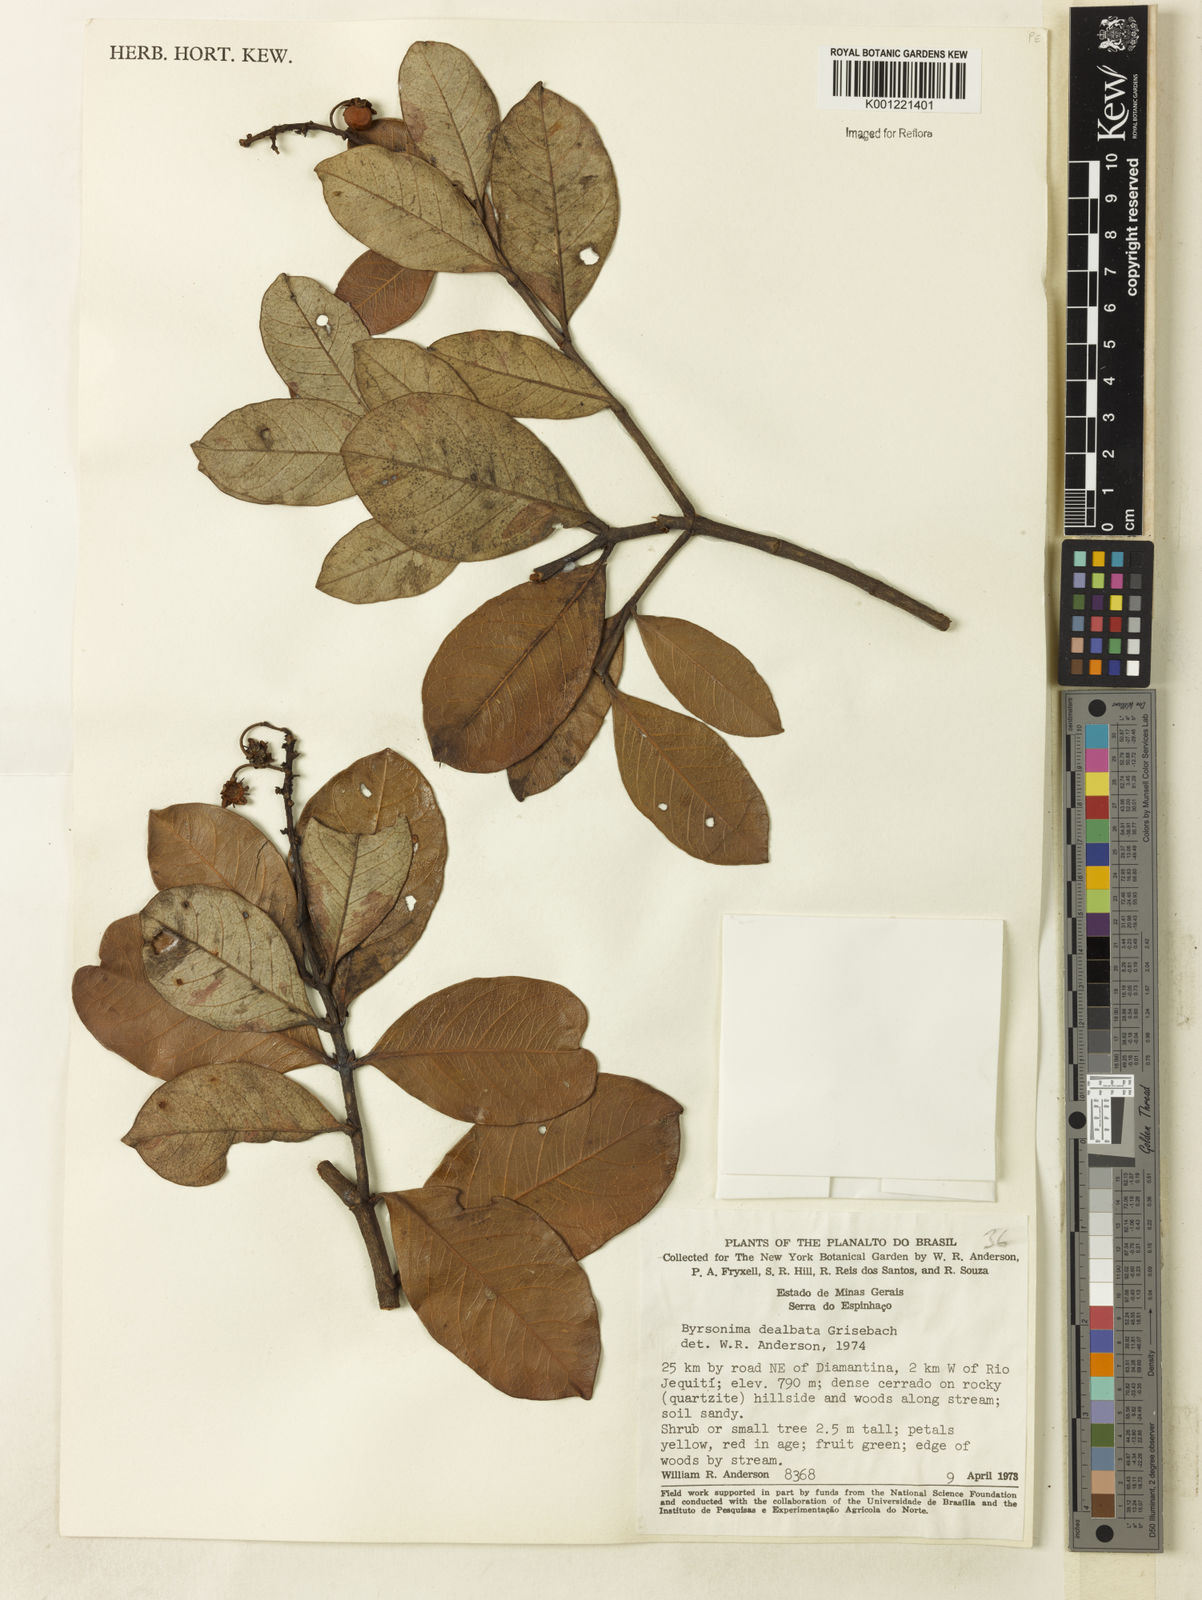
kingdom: Plantae
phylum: Tracheophyta
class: Magnoliopsida
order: Malpighiales
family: Malpighiaceae
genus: Byrsonima
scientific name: Byrsonima dealbata
